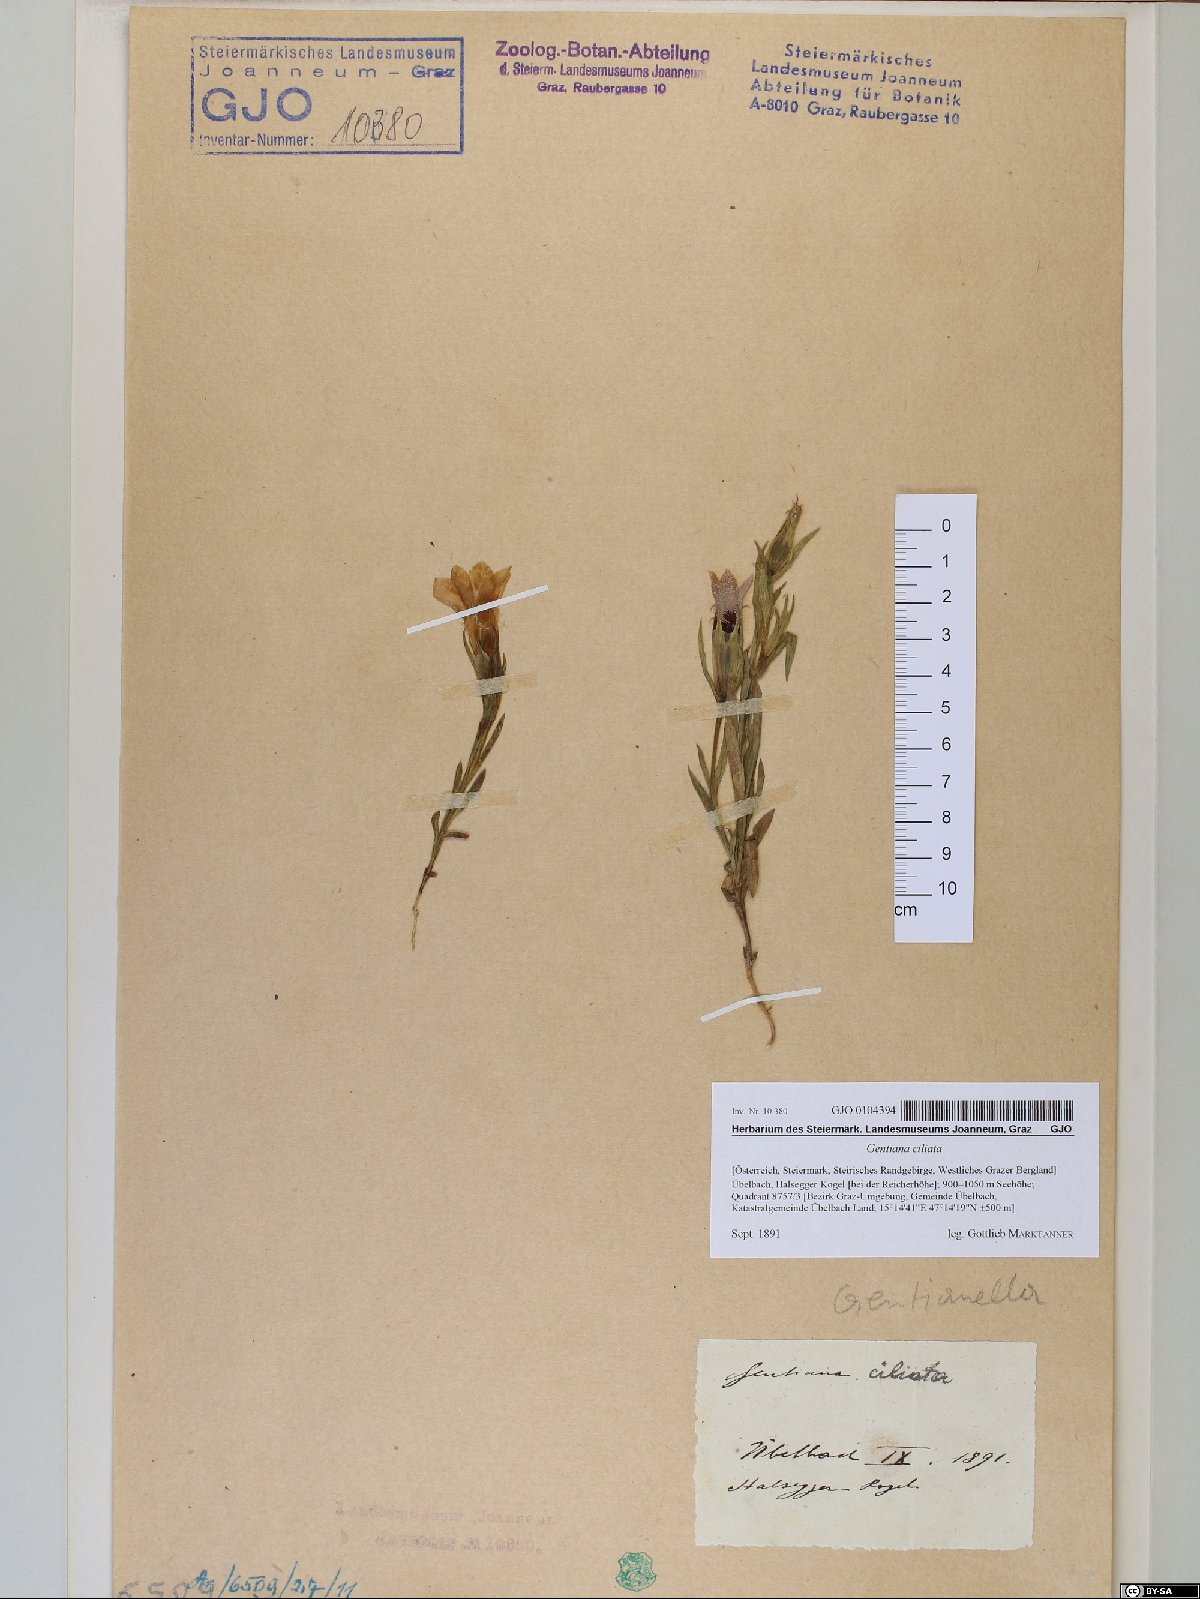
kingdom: Plantae
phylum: Tracheophyta
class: Magnoliopsida
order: Gentianales
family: Gentianaceae
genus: Gentianopsis
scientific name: Gentianopsis ciliata
